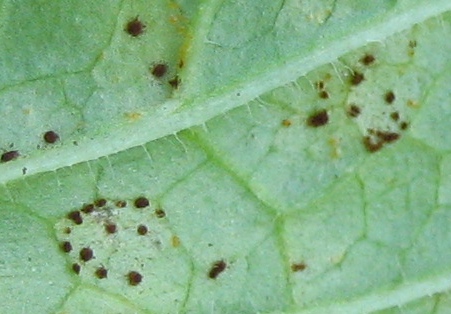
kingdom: Fungi
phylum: Basidiomycota
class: Pucciniomycetes
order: Pucciniales
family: Pucciniaceae
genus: Puccinia
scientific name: Puccinia
